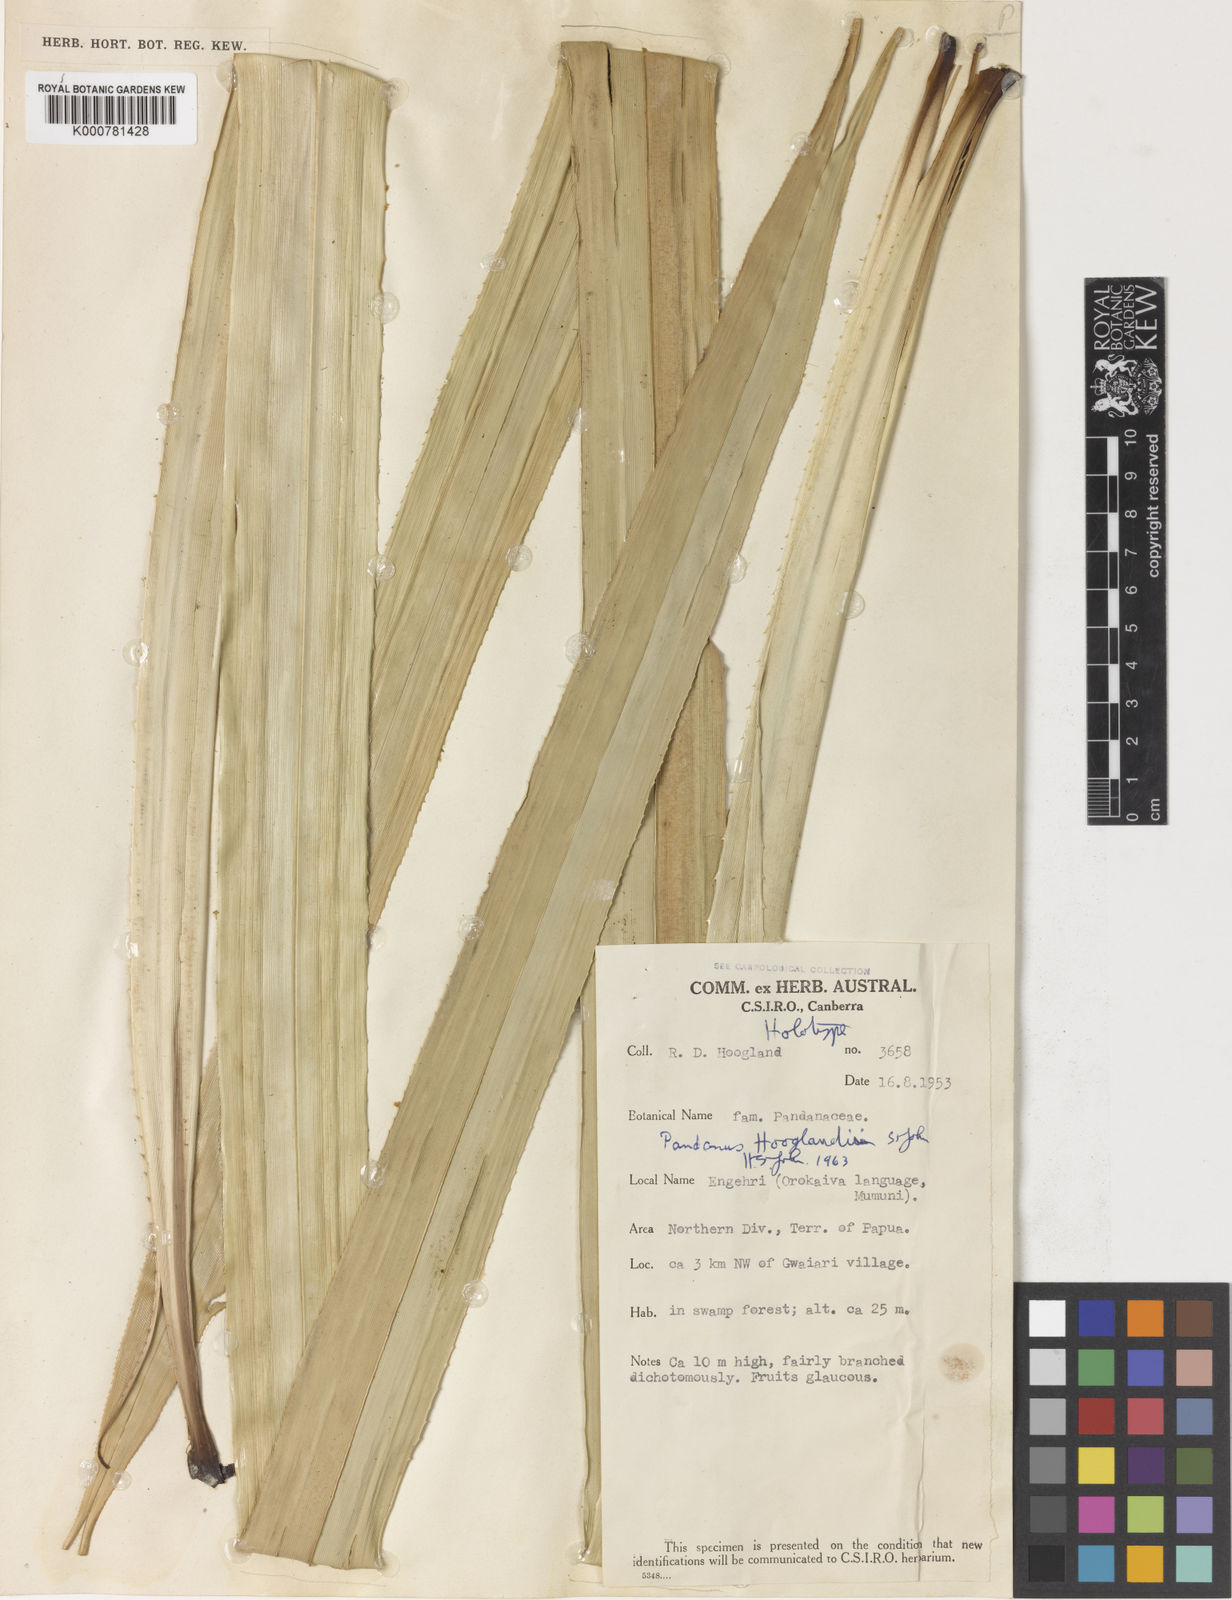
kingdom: Plantae
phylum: Tracheophyta
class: Liliopsida
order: Pandanales
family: Pandanaceae
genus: Pandanus
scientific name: Pandanus hooglandii
